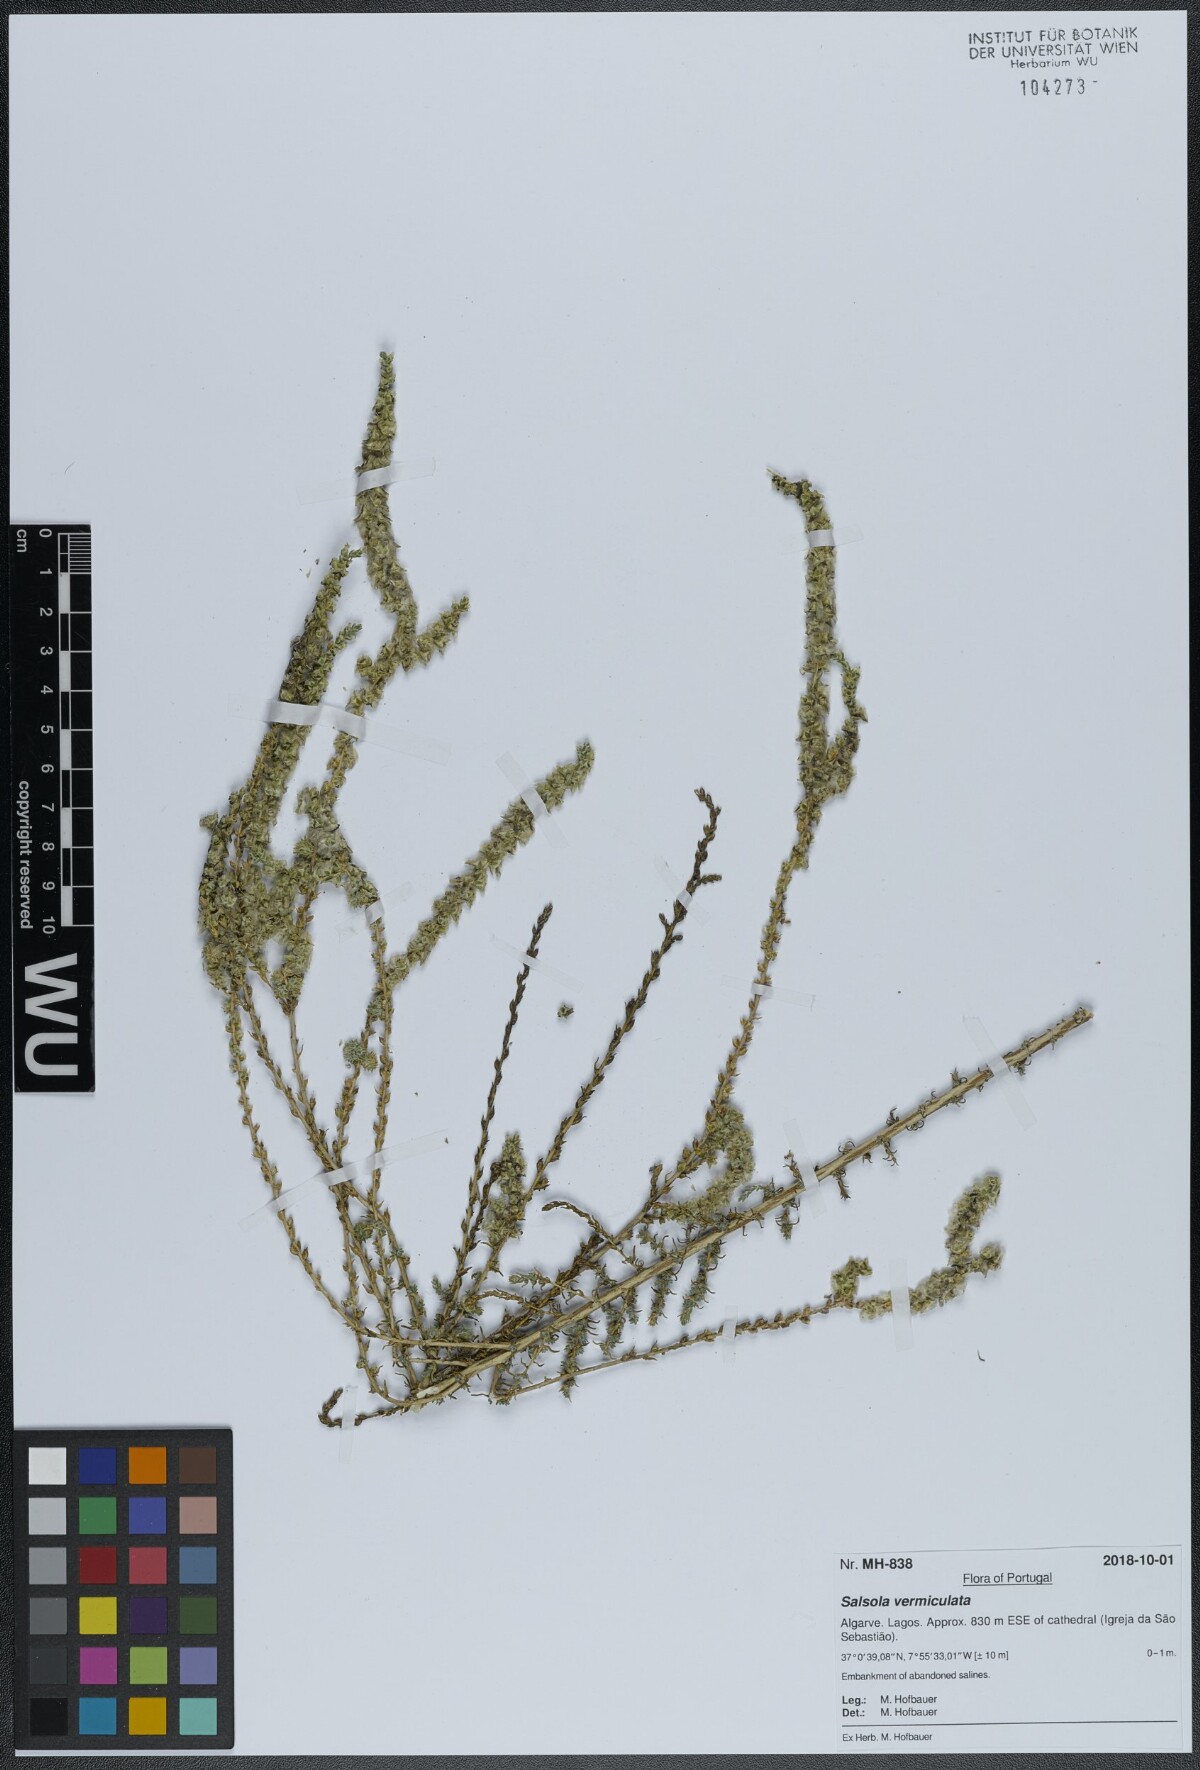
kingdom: Plantae
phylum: Tracheophyta
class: Magnoliopsida
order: Caryophyllales
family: Amaranthaceae
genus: Nitrosalsola
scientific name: Nitrosalsola vermiculata
